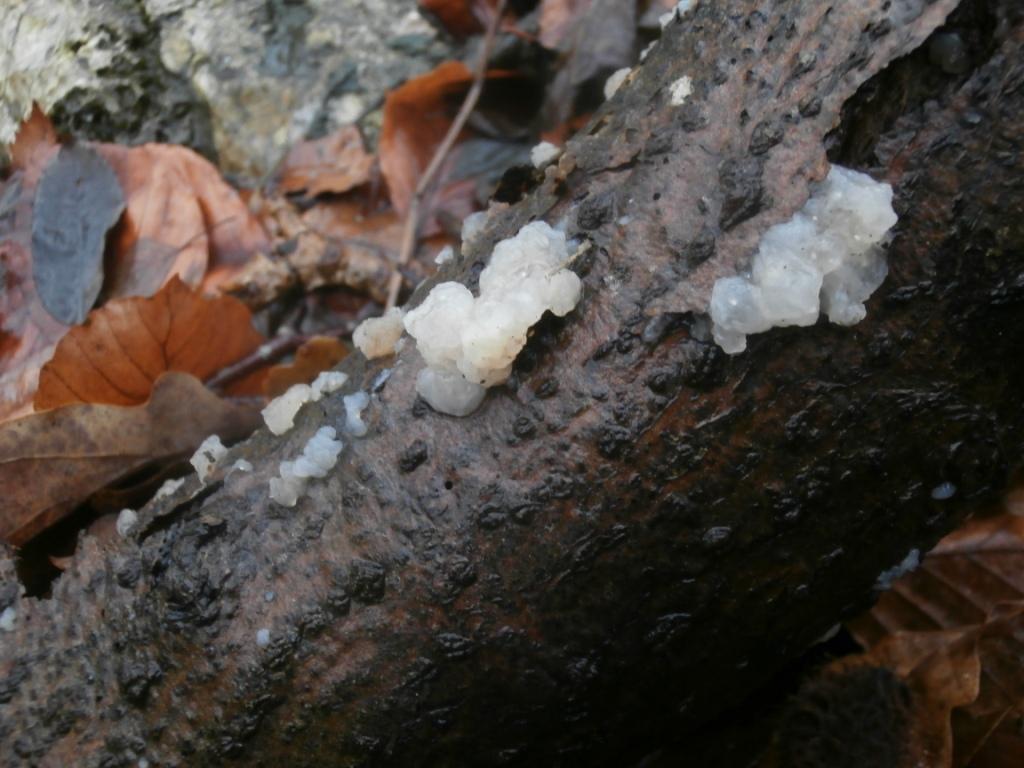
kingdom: Fungi
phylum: Basidiomycota
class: Agaricomycetes
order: Auriculariales
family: Hyaloriaceae
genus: Myxarium
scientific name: Myxarium nucleatum
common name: klar bævretop
